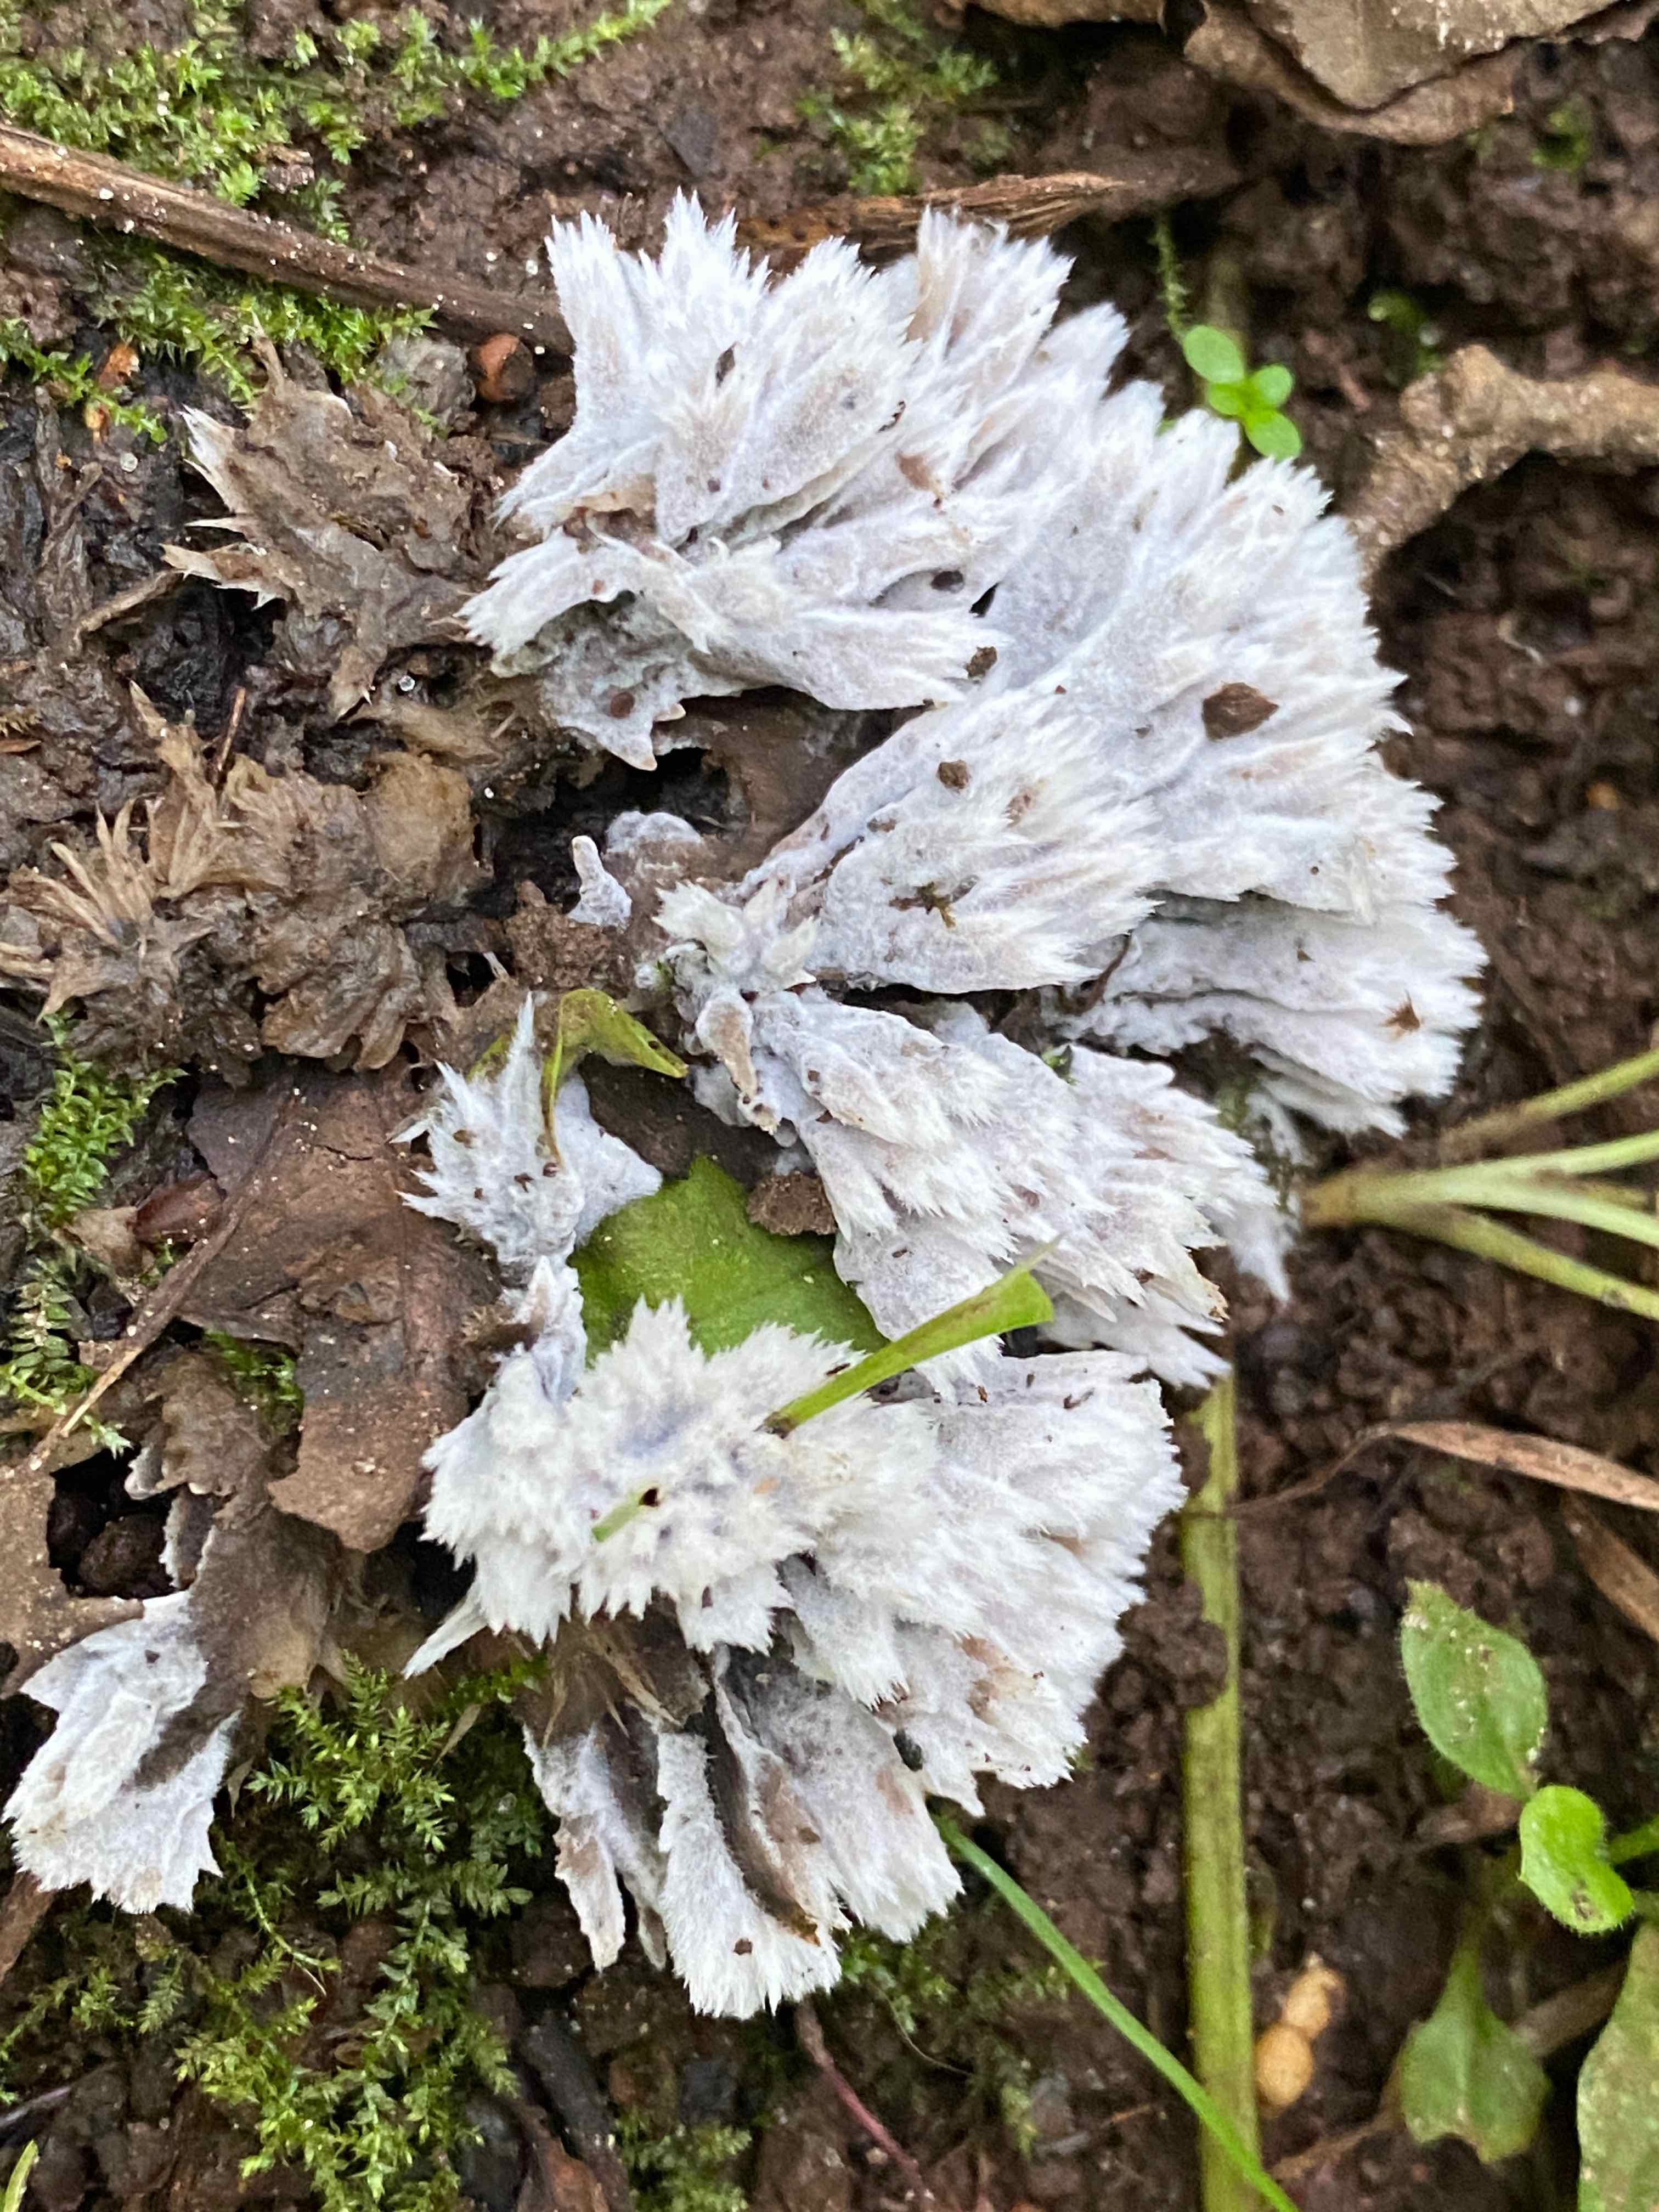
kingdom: Fungi
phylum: Basidiomycota
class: Agaricomycetes
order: Thelephorales
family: Thelephoraceae
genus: Thelephora
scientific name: Thelephora penicillata
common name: fladtrådt frynsesvamp
